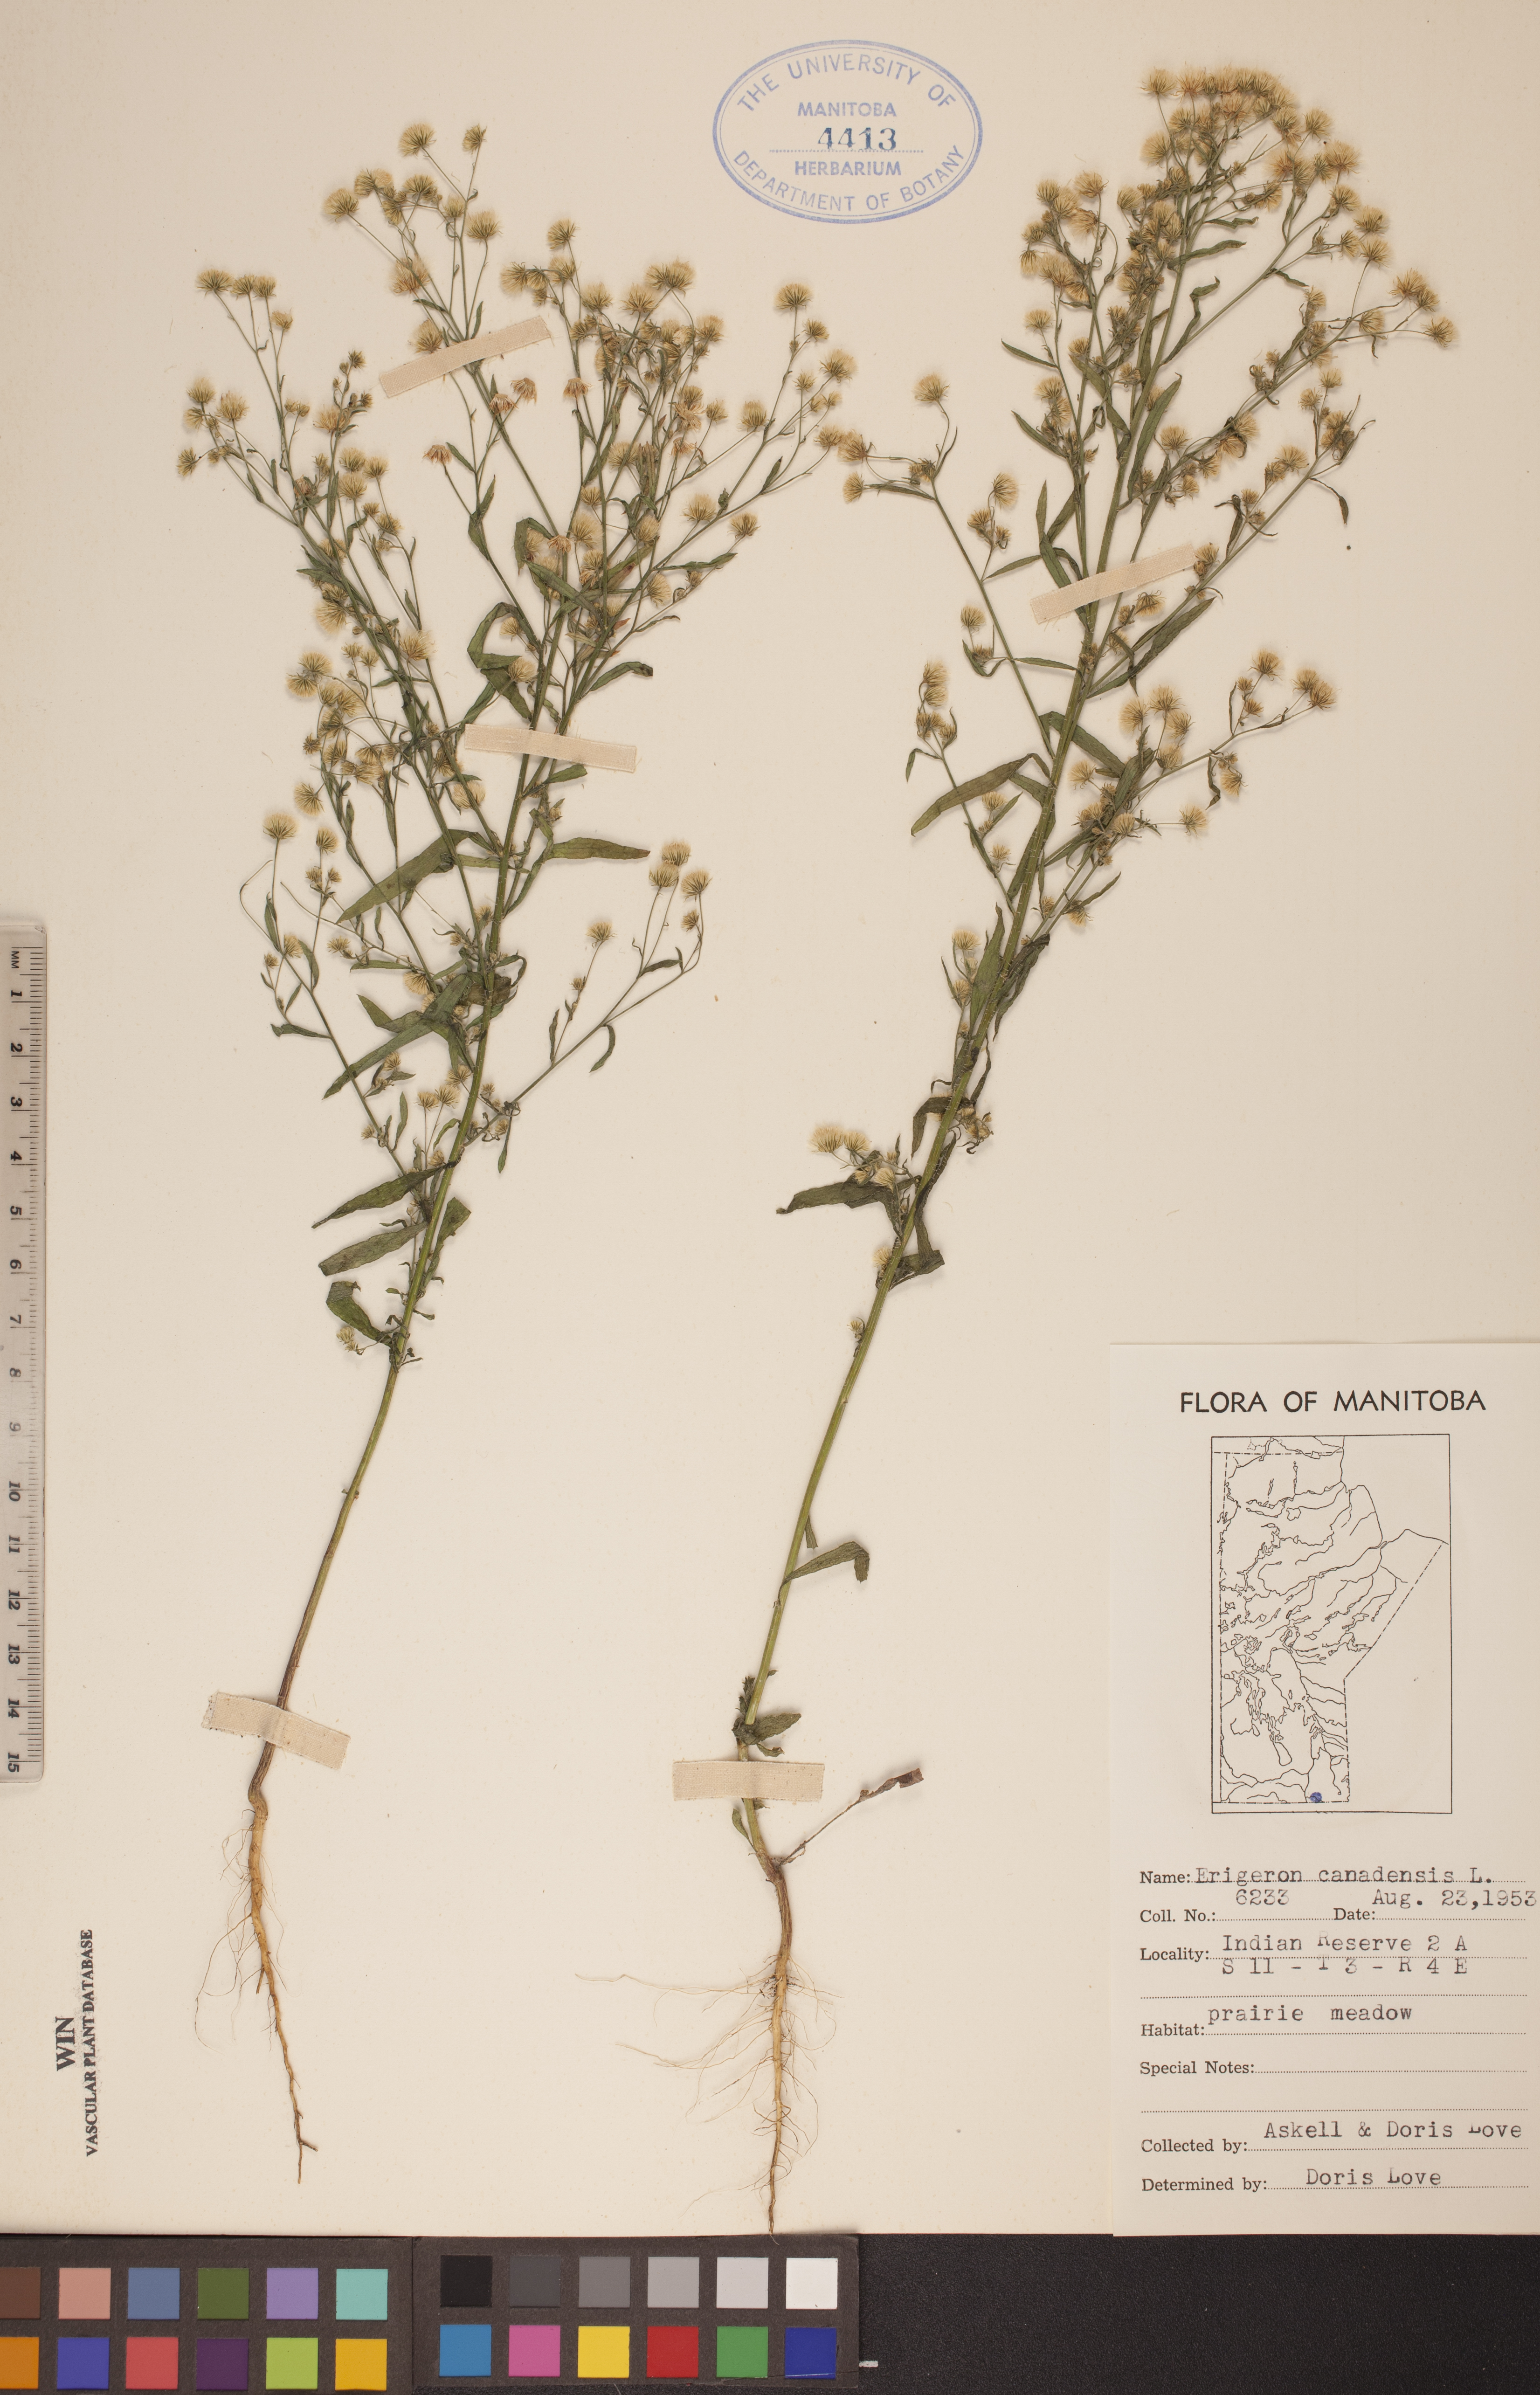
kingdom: Plantae
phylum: Tracheophyta
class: Magnoliopsida
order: Asterales
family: Asteraceae
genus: Erigeron
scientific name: Erigeron canadensis
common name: Canadian fleabane
